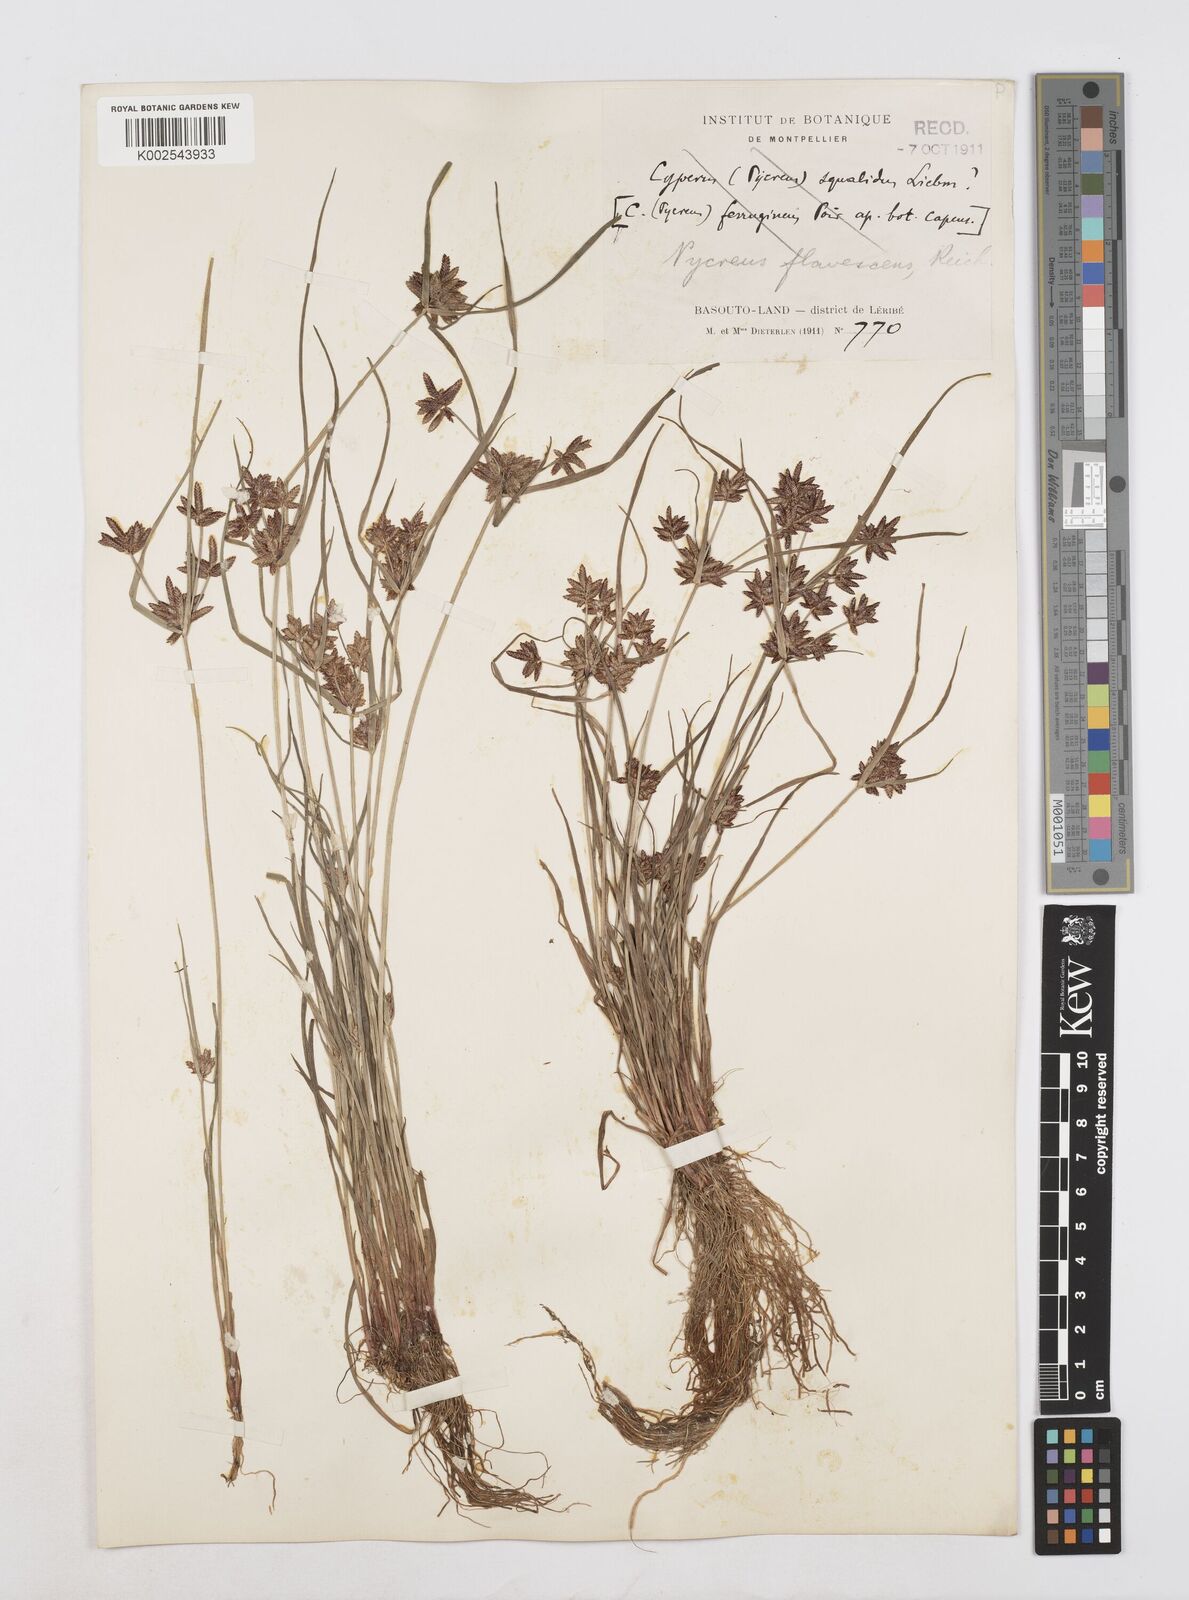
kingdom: Plantae
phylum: Tracheophyta
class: Liliopsida
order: Poales
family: Cyperaceae
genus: Cyperus
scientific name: Cyperus flavescens
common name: Yellow galingale
